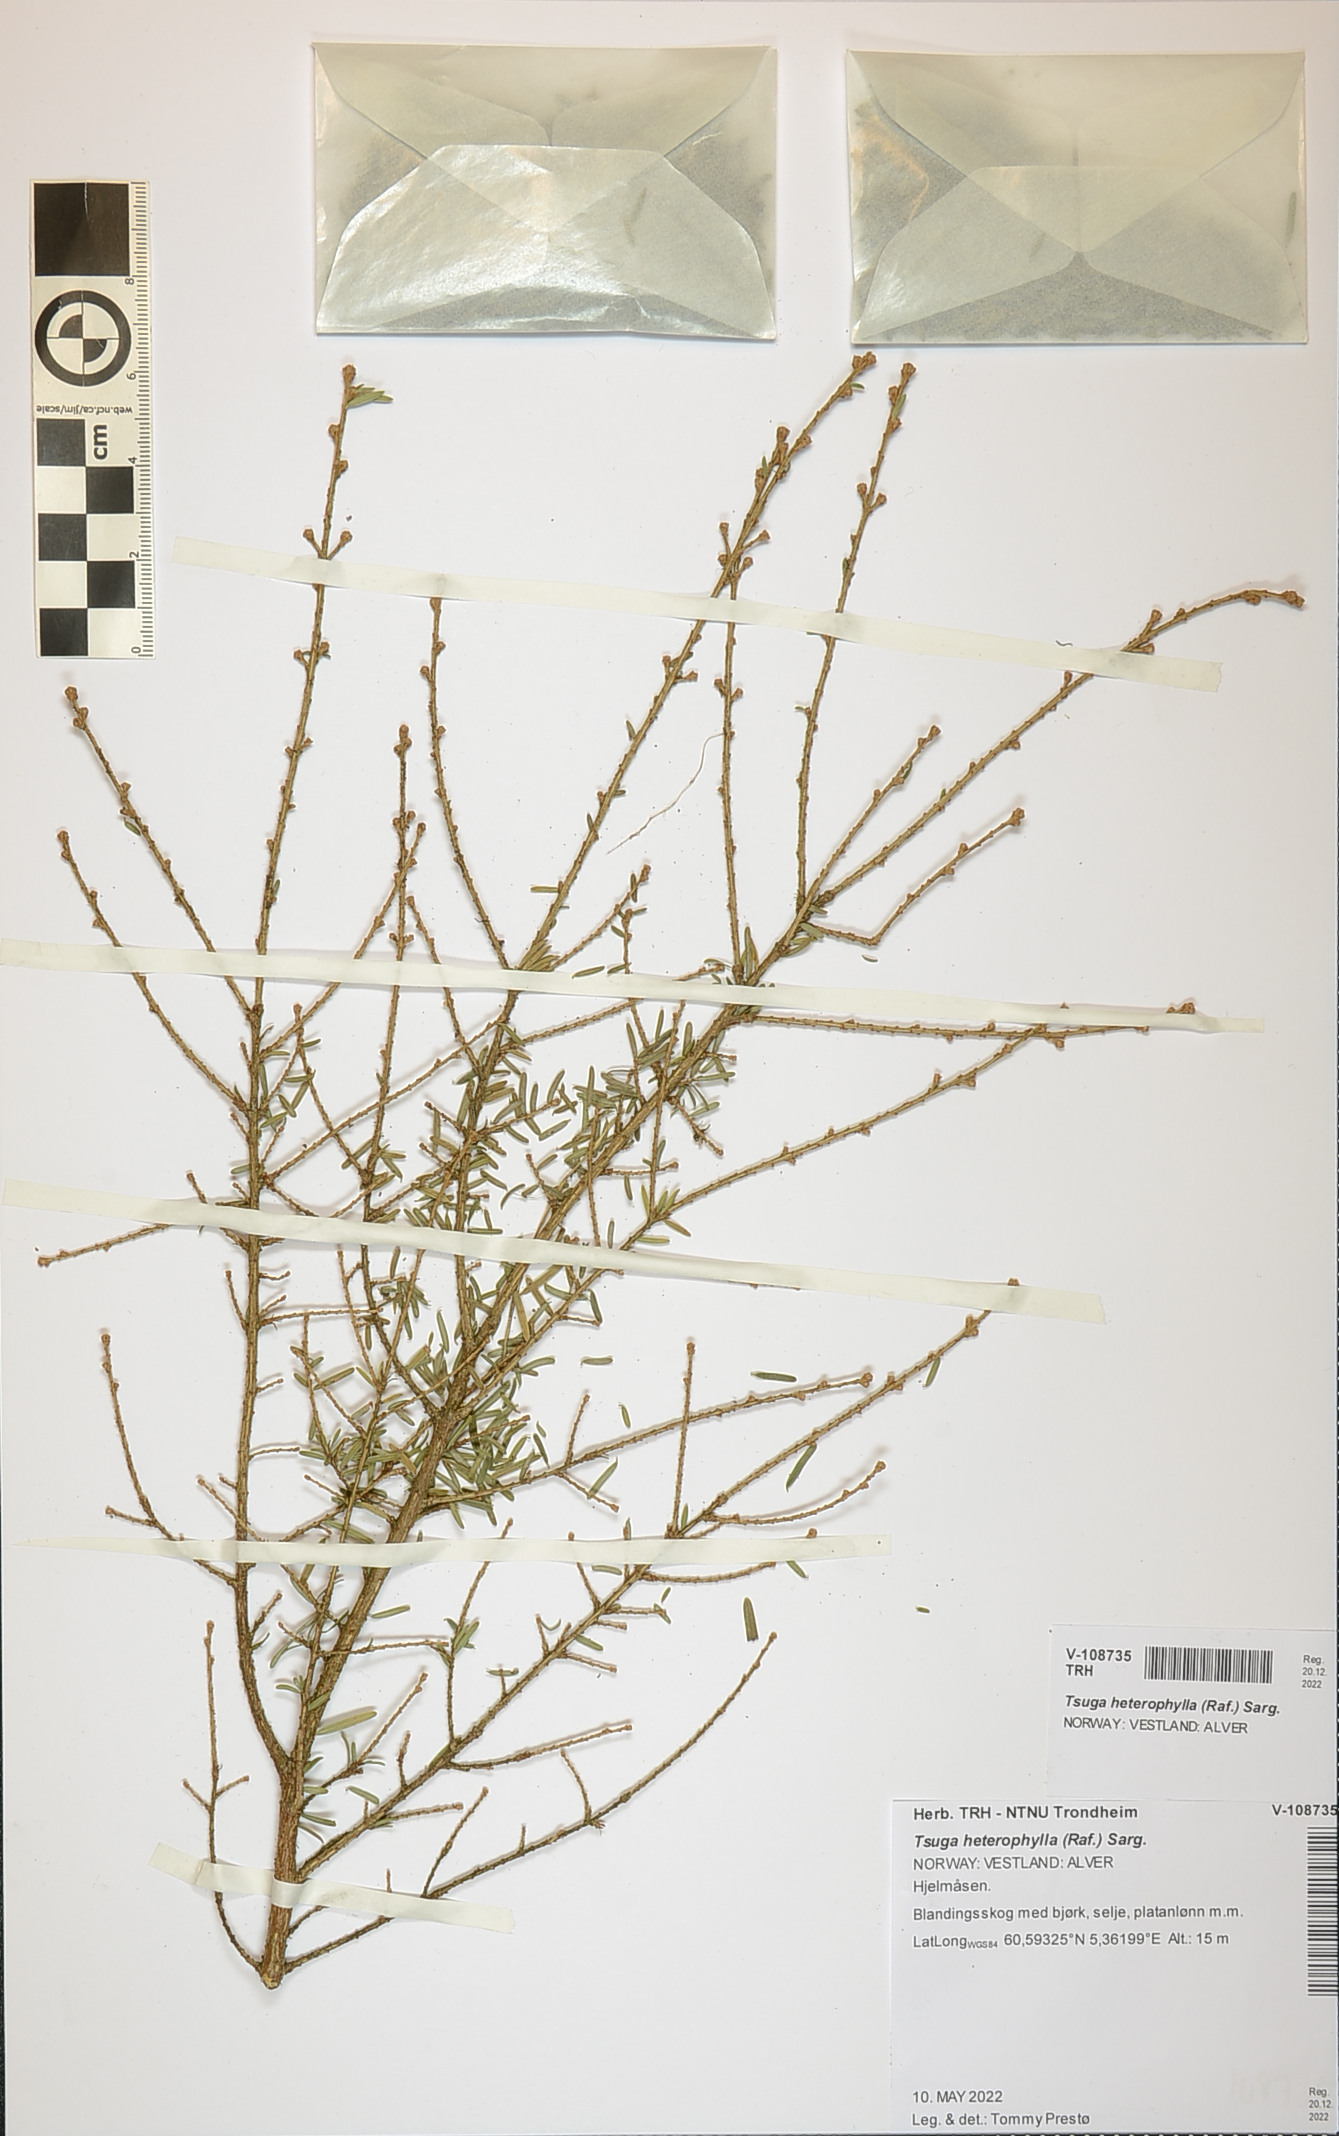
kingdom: Plantae
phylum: Tracheophyta
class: Pinopsida
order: Pinales
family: Pinaceae
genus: Tsuga
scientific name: Tsuga heterophylla
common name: Western hemlock
